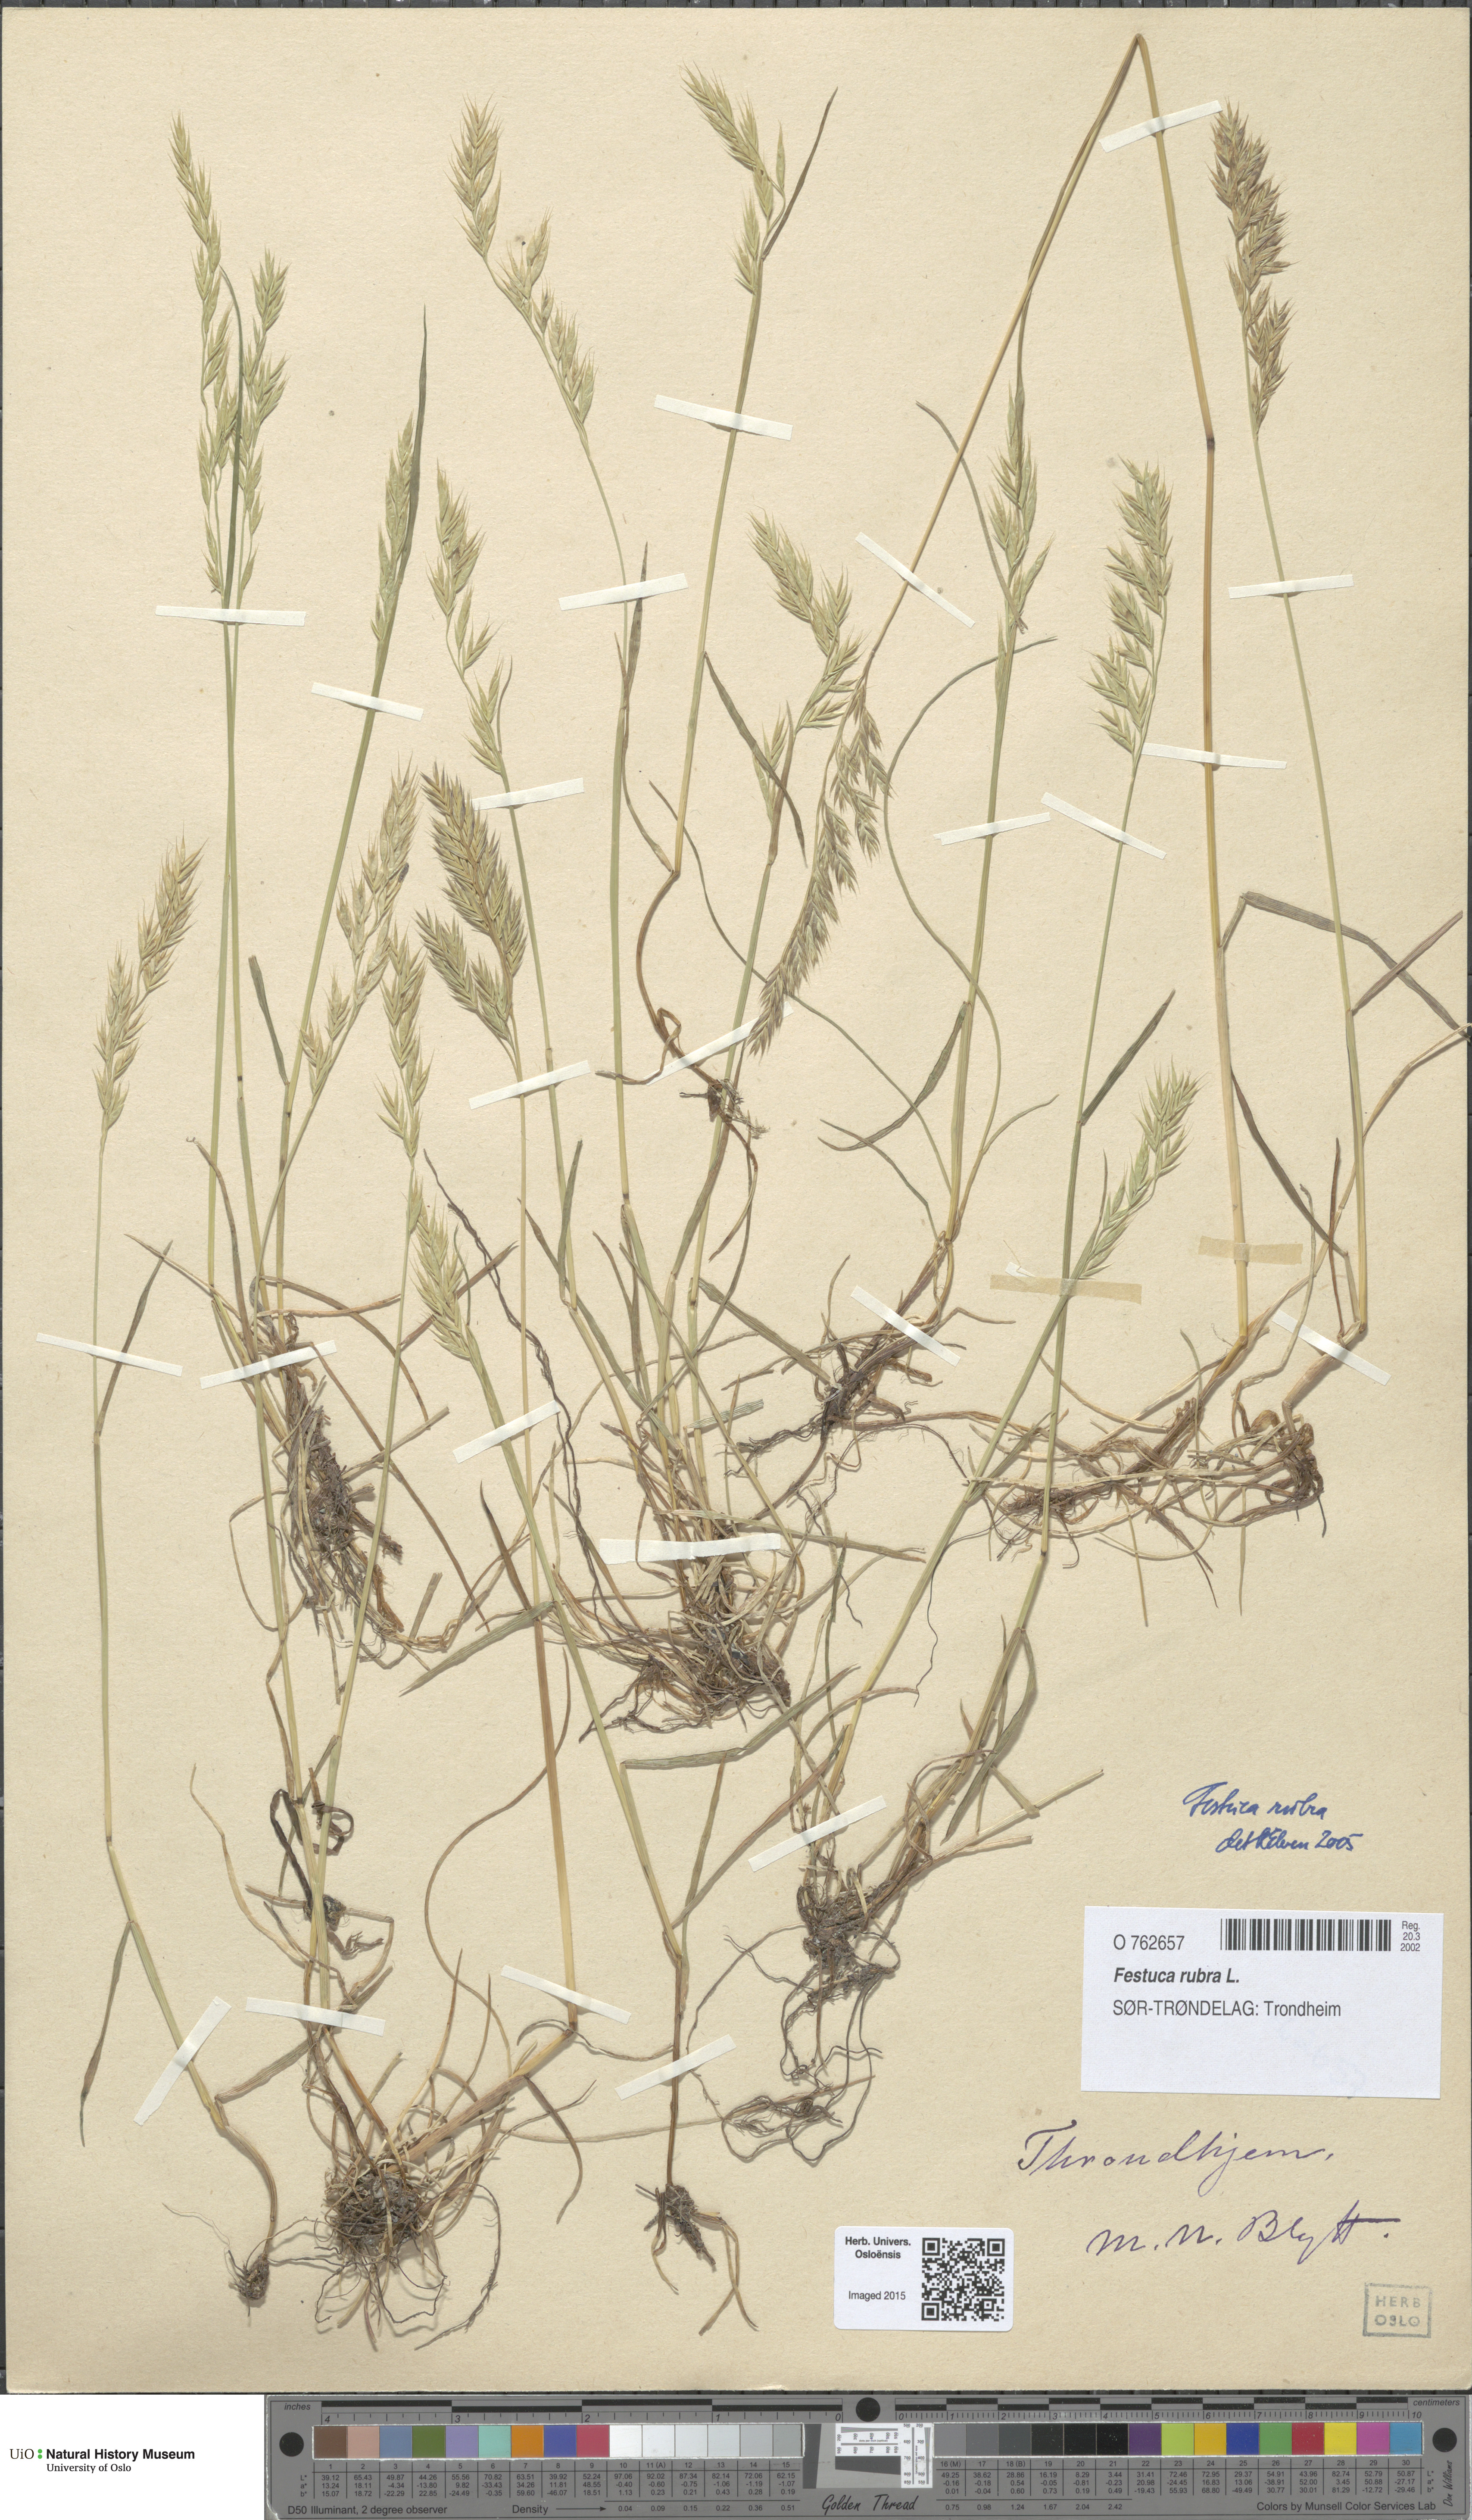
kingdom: Plantae
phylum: Tracheophyta
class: Liliopsida
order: Poales
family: Poaceae
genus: Festuca
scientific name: Festuca rubra
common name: Red fescue
